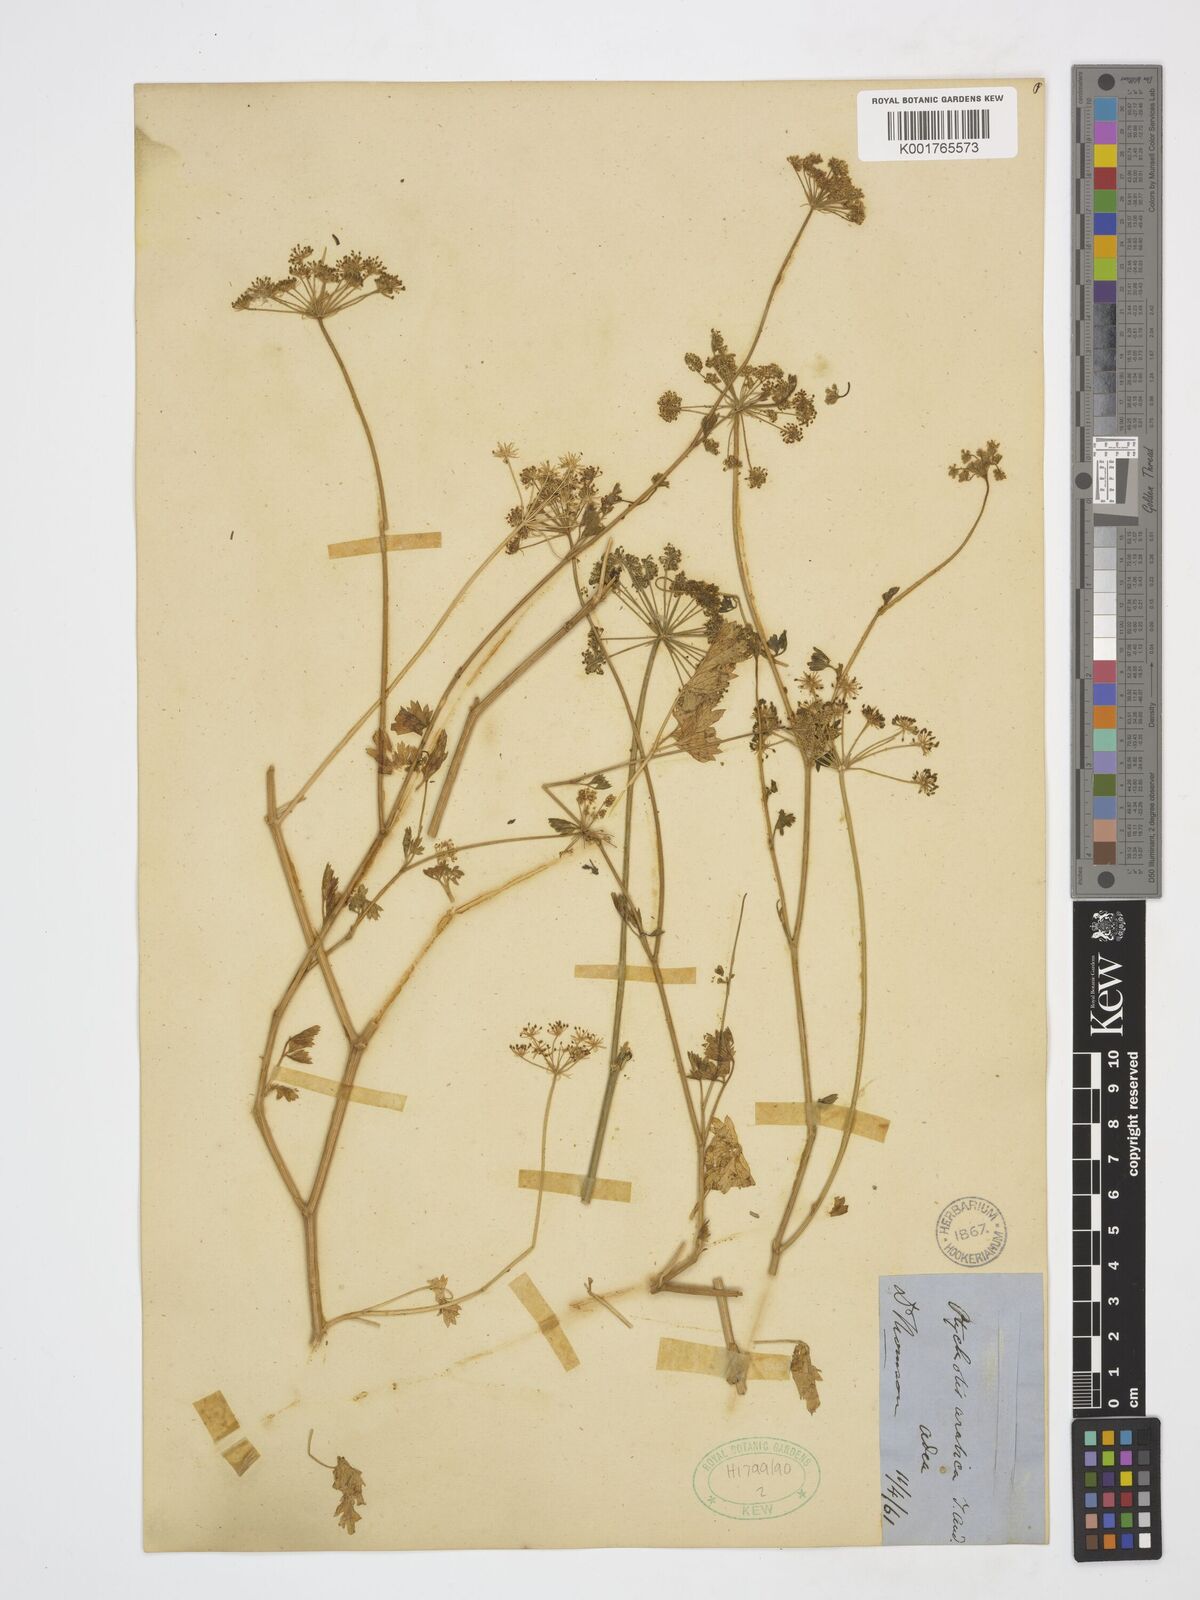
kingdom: Plantae
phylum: Tracheophyta
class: Magnoliopsida
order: Apiales
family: Apiaceae
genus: Adenosciadium
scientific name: Adenosciadium arabicum
